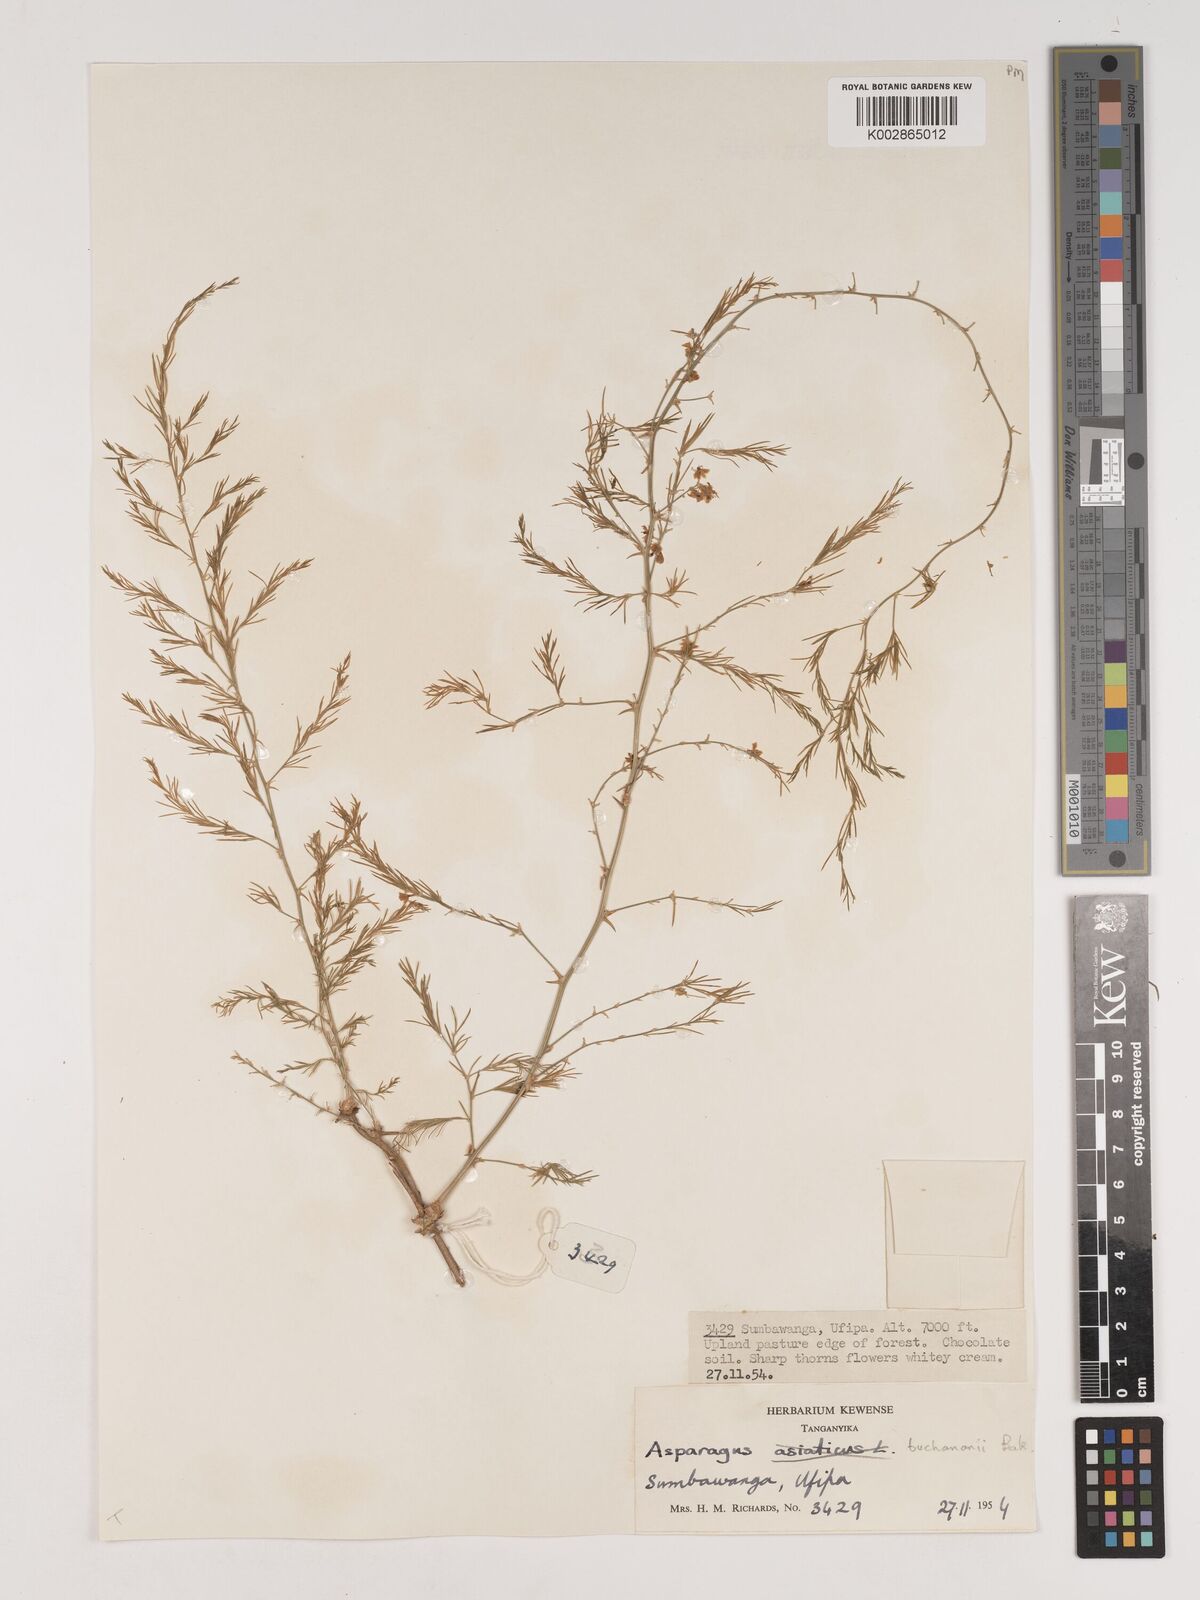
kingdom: Plantae
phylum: Tracheophyta
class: Liliopsida
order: Asparagales
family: Asparagaceae
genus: Asparagus
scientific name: Asparagus buchananii
